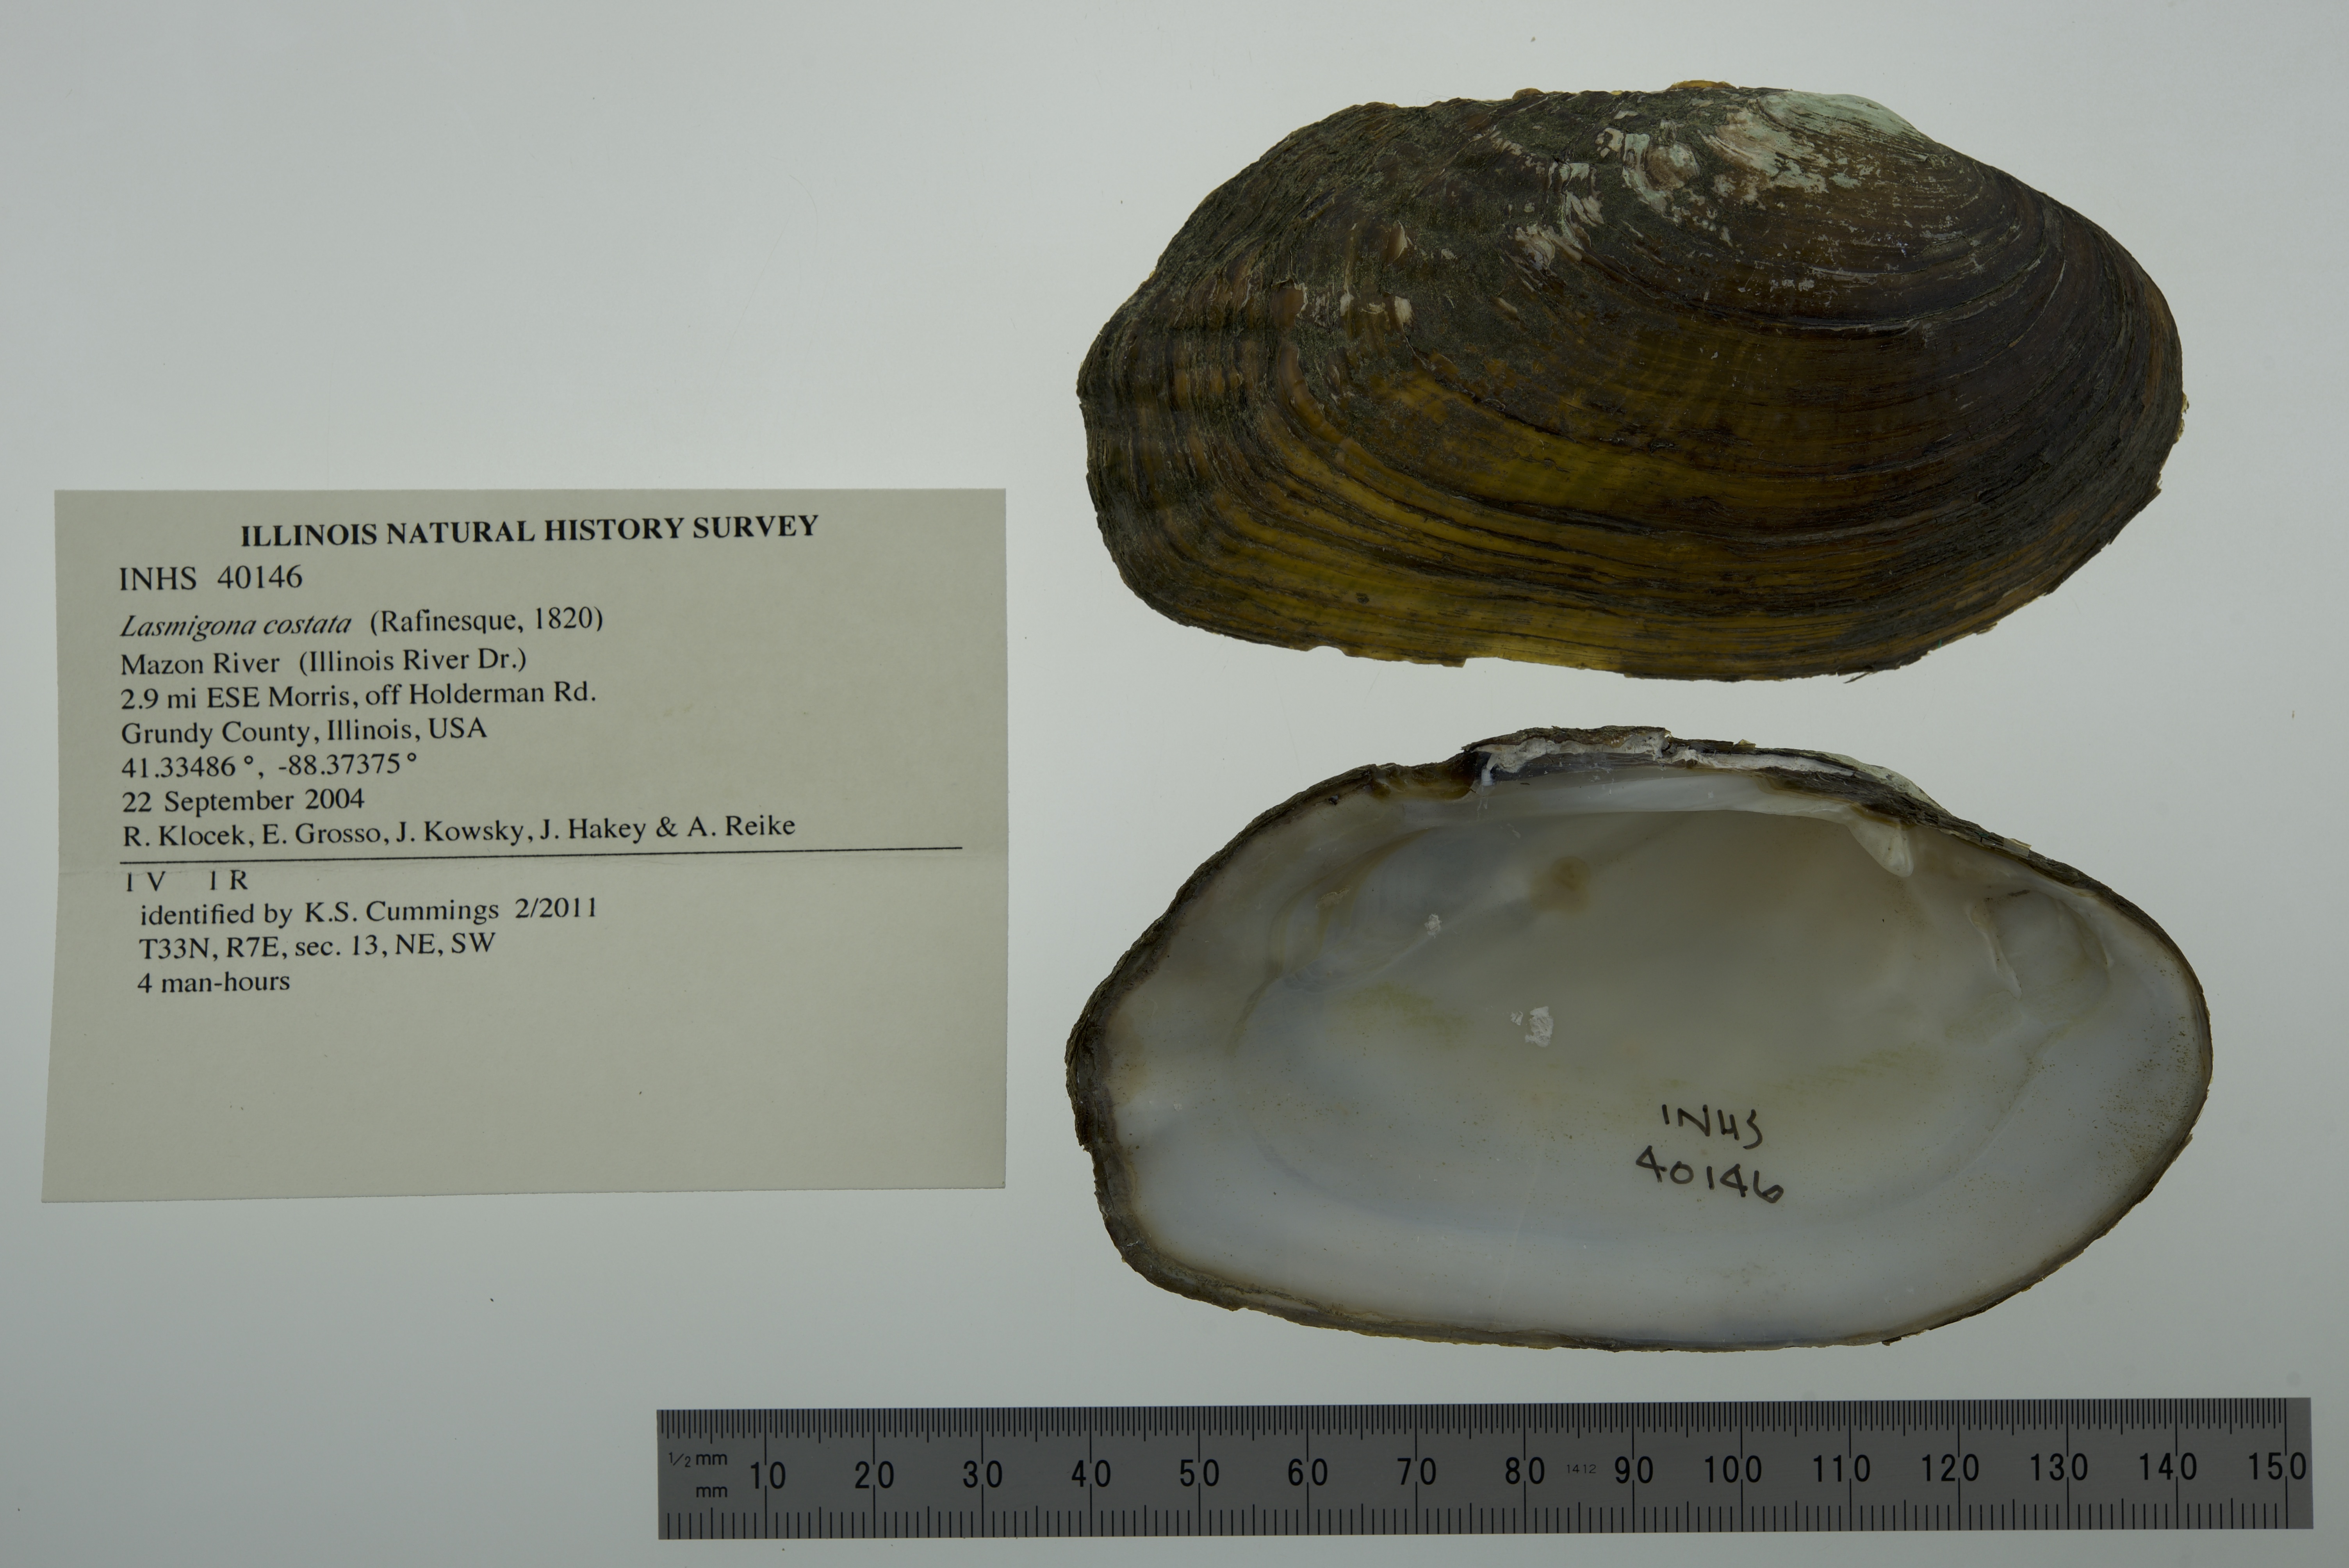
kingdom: Animalia
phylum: Mollusca
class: Bivalvia
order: Unionida
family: Unionidae
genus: Lasmigona
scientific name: Lasmigona costata
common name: Flutedshell
